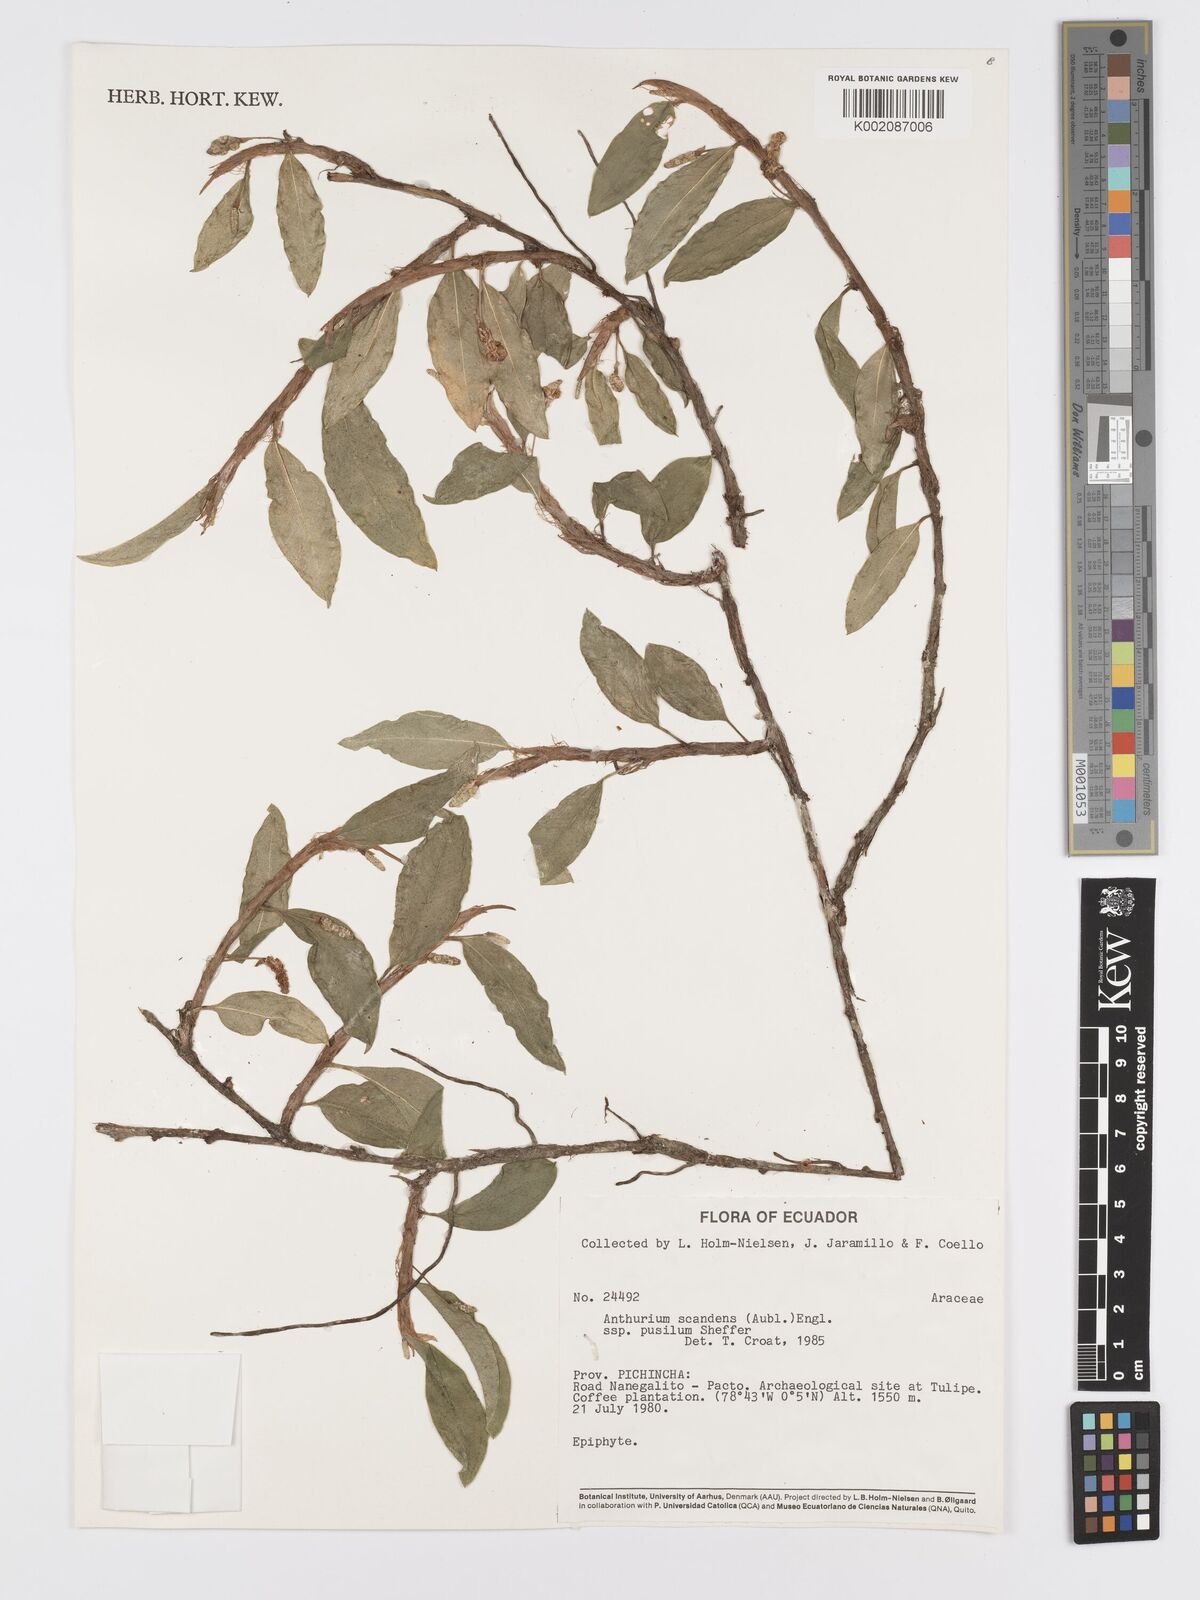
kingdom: Plantae
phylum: Tracheophyta
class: Liliopsida
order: Alismatales
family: Araceae
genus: Anthurium
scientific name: Anthurium scandens
